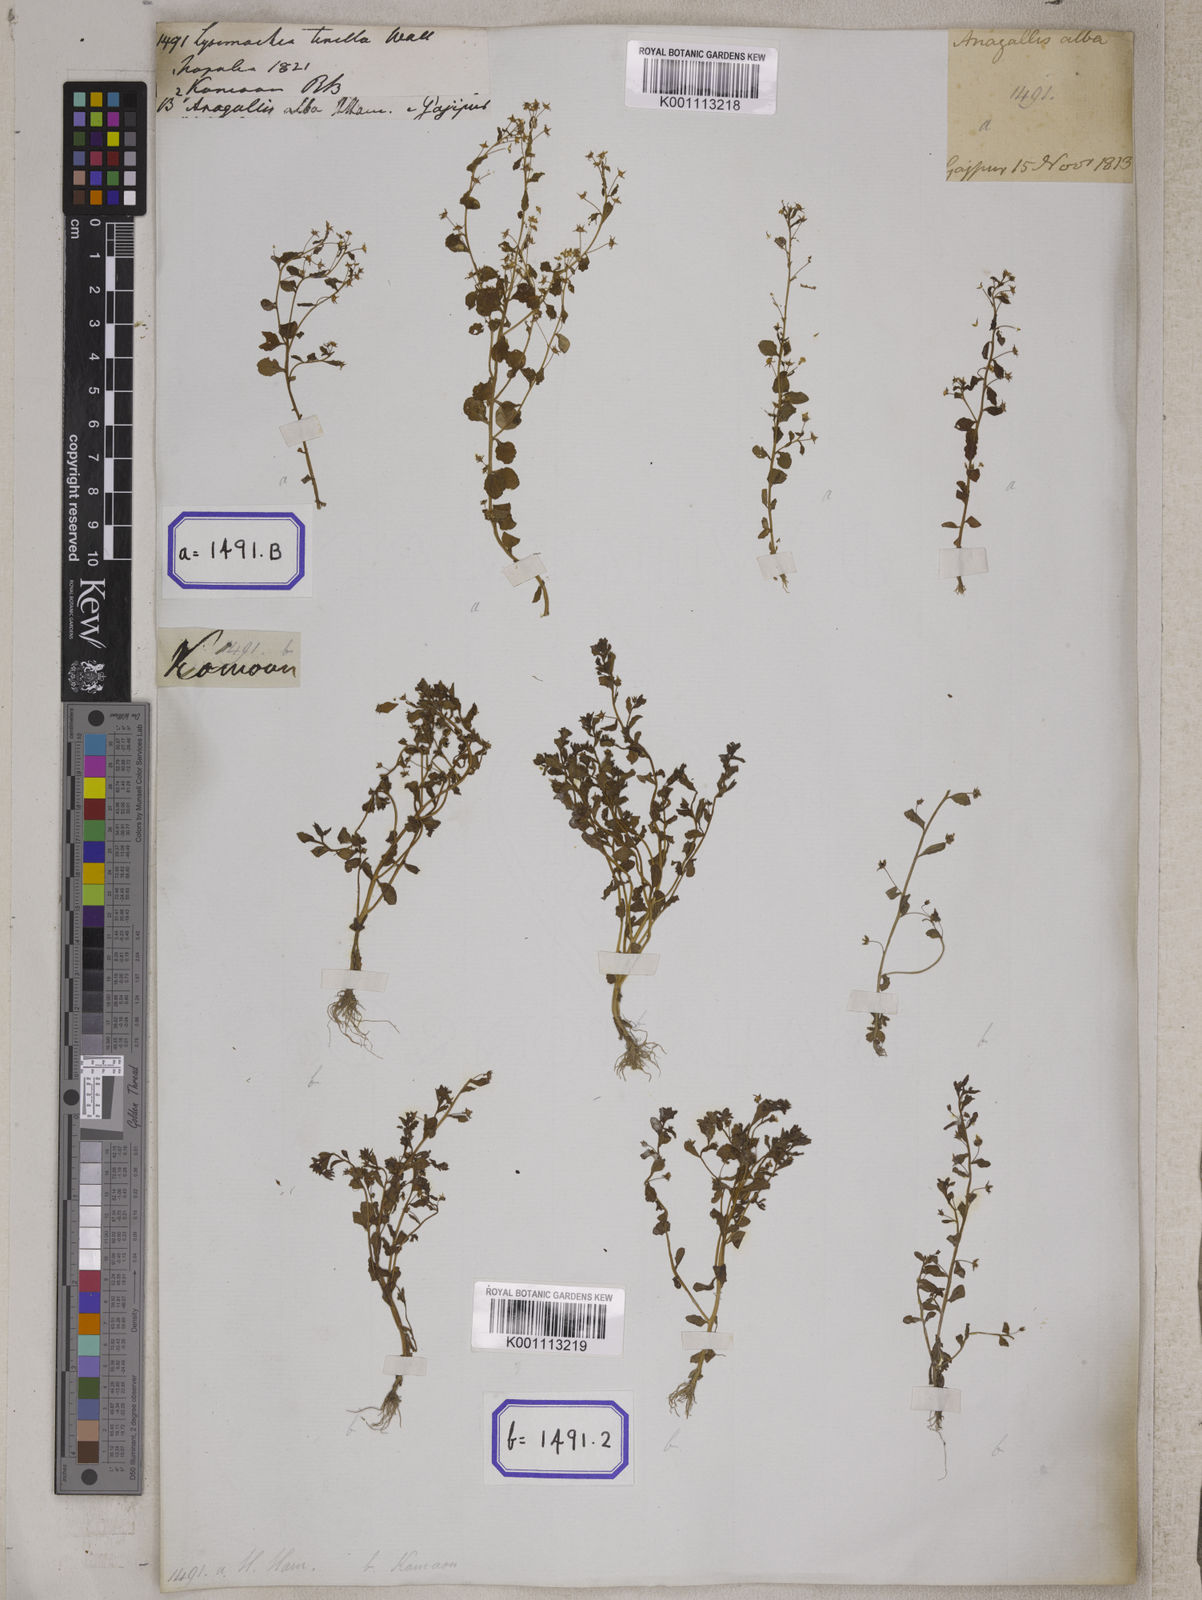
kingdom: Plantae
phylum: Tracheophyta
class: Magnoliopsida
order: Ericales
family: Primulaceae
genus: Lysimachia
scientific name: Lysimachia ovalis
